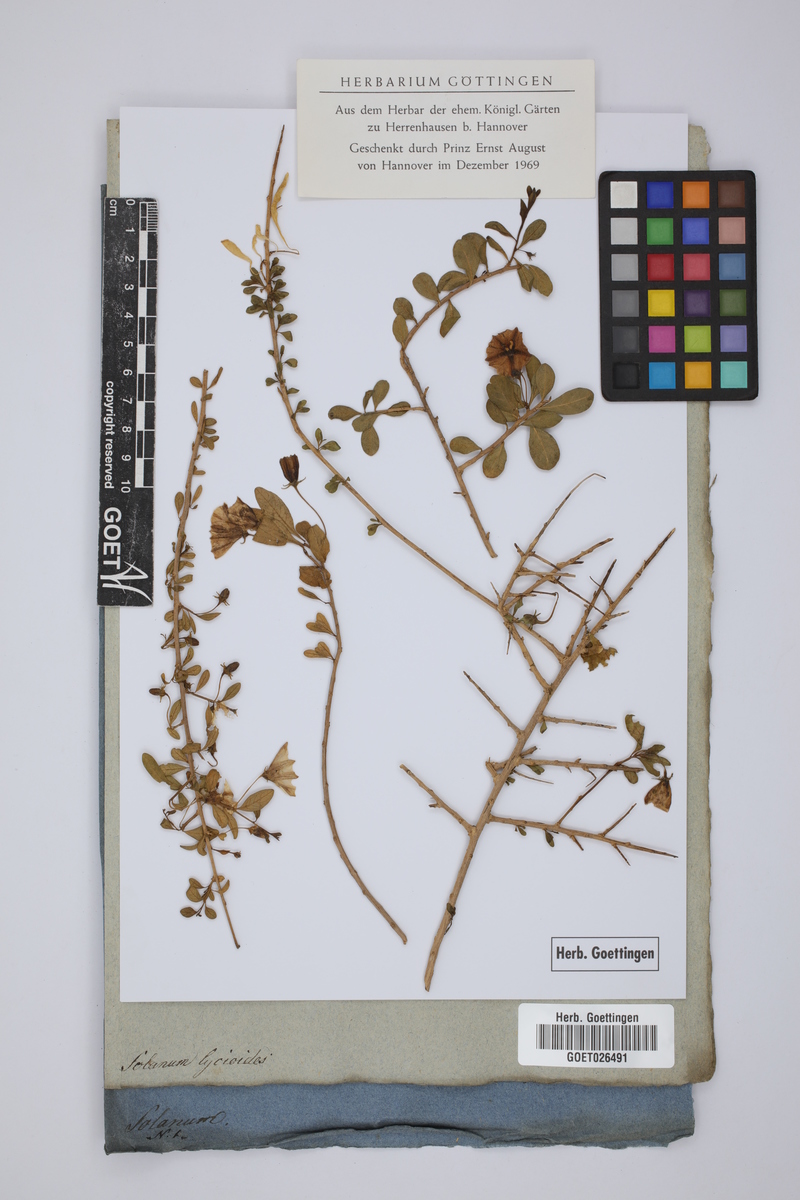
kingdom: Plantae
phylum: Tracheophyta
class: Magnoliopsida
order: Solanales
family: Solanaceae
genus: Lycianthes
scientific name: Lycianthes lycioides
